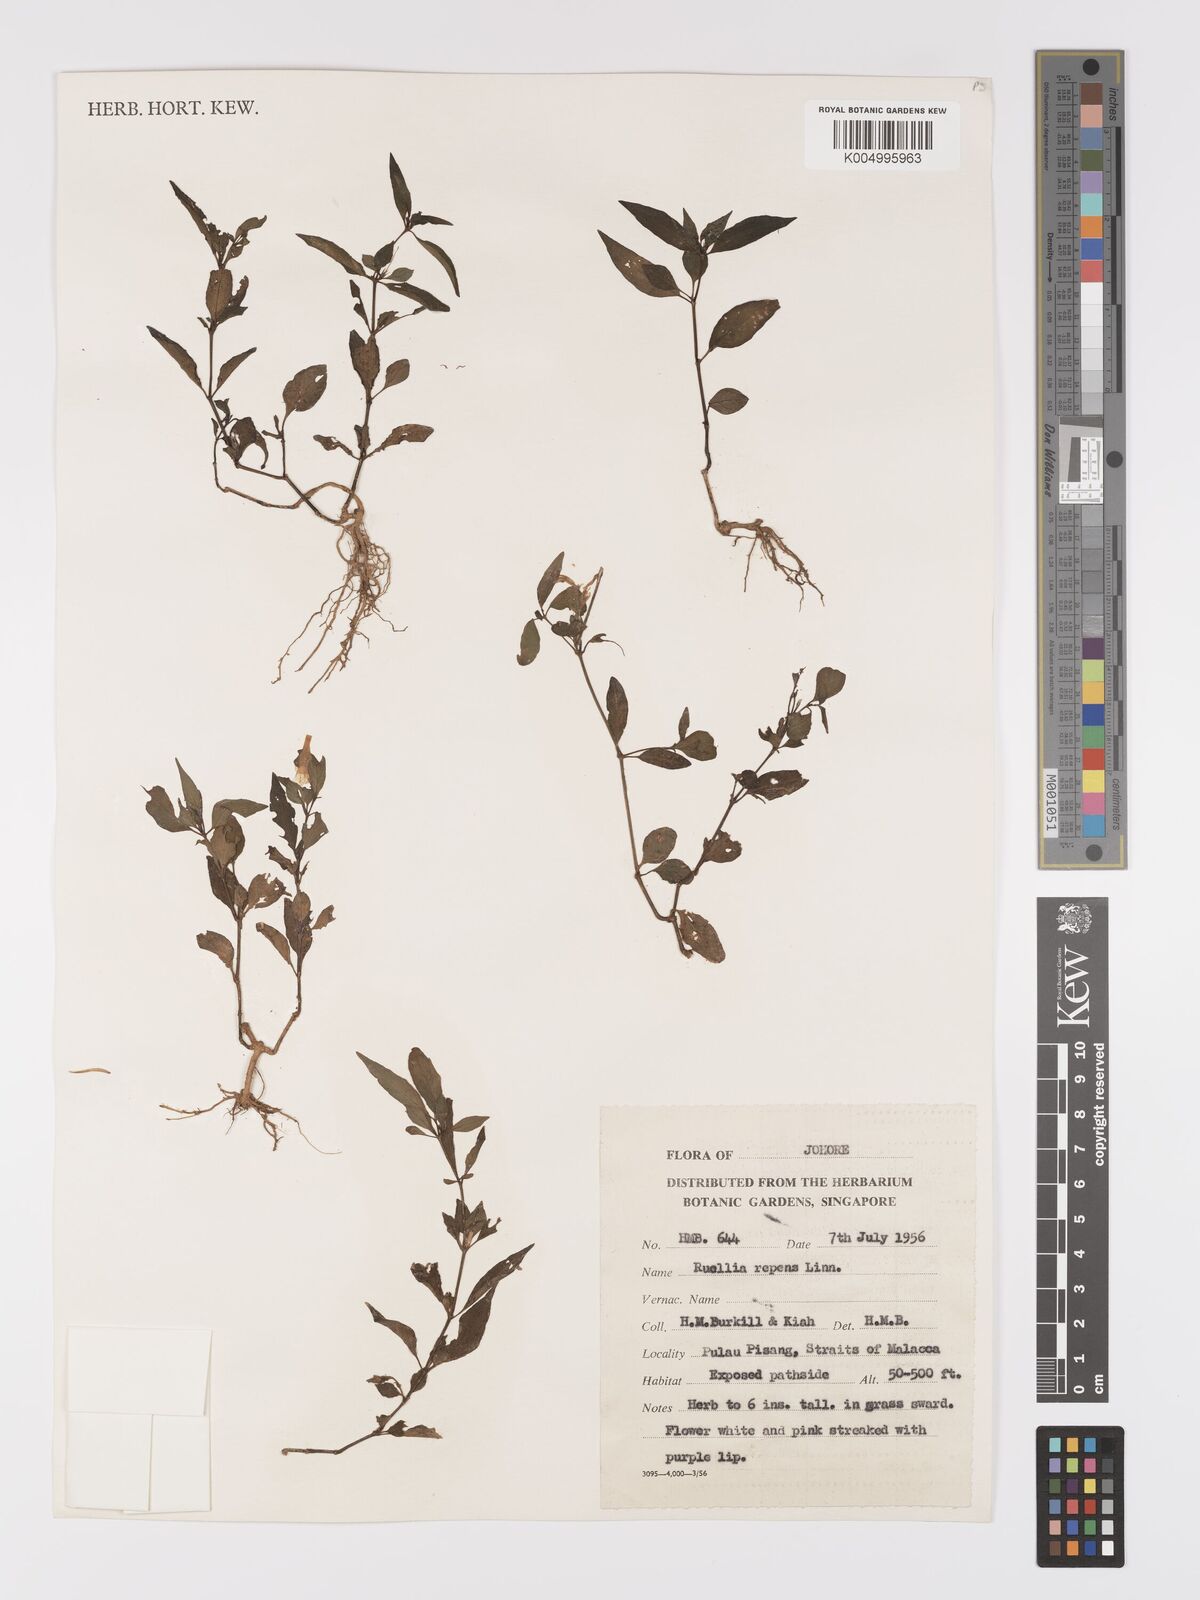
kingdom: Plantae
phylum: Tracheophyta
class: Magnoliopsida
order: Lamiales
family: Acanthaceae
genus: Ruellia
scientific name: Ruellia
